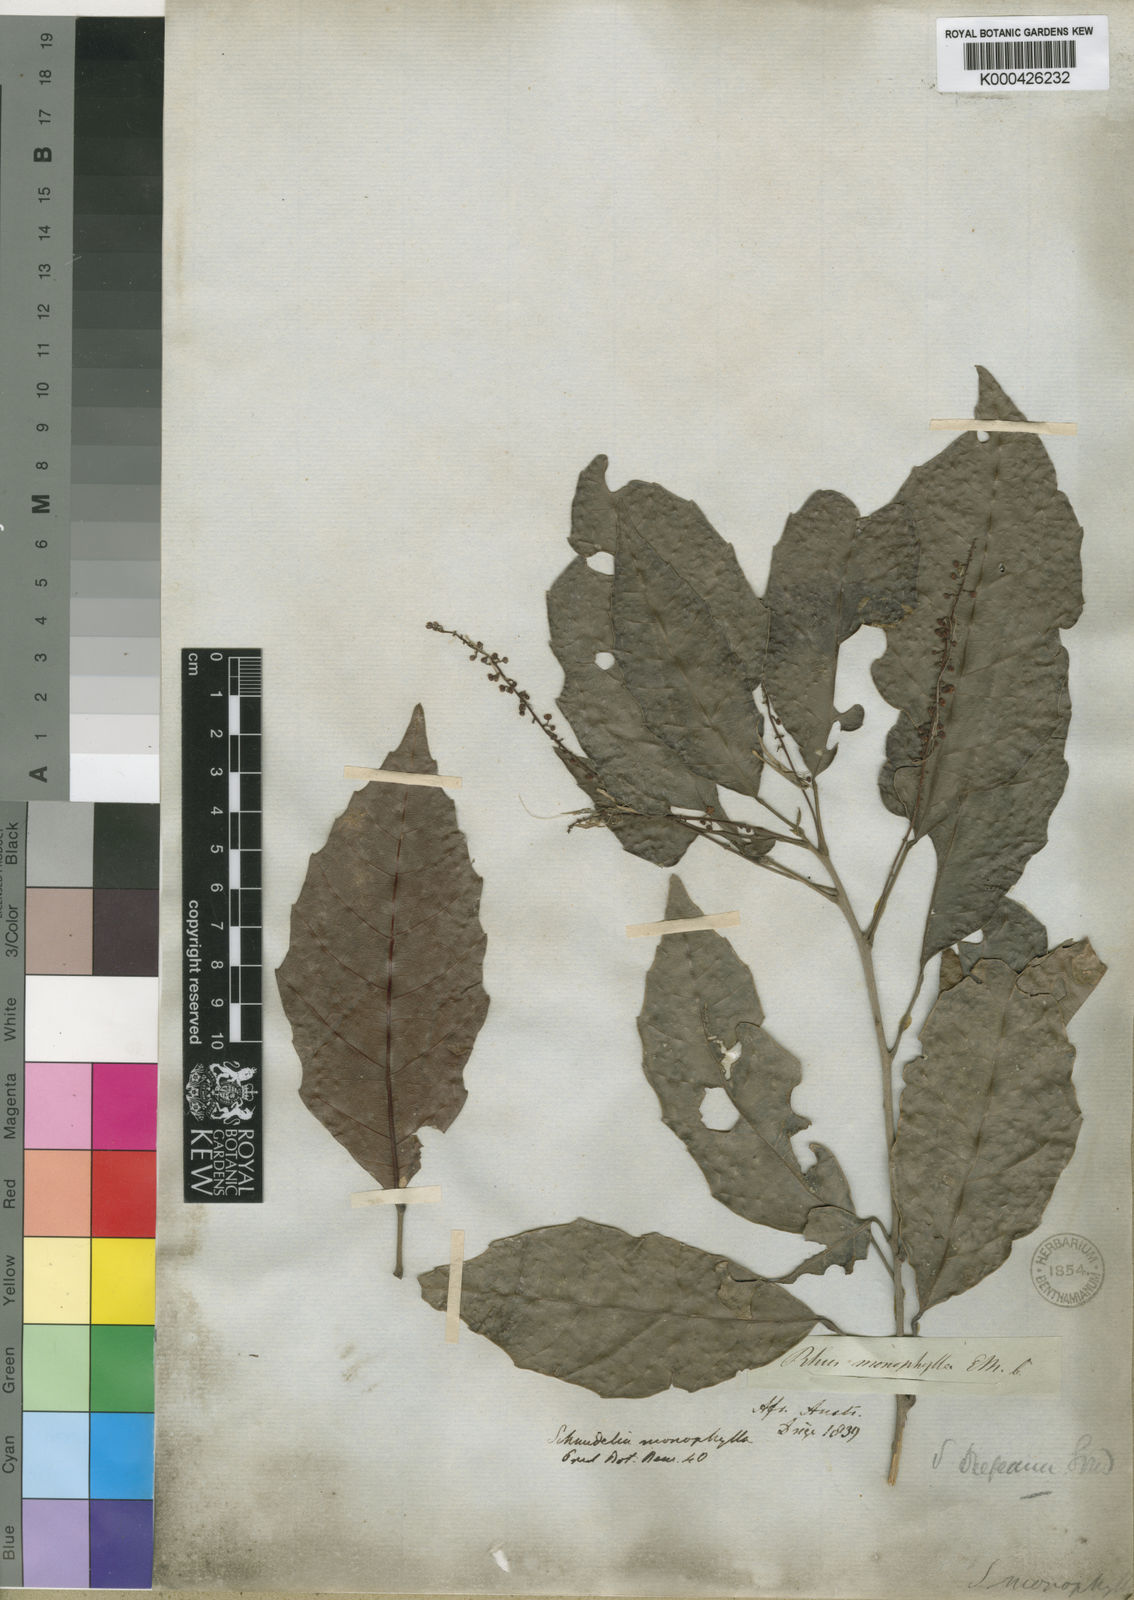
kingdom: Plantae
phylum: Tracheophyta
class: Magnoliopsida
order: Sapindales
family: Sapindaceae
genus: Allophylus
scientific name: Allophylus dregeanus
